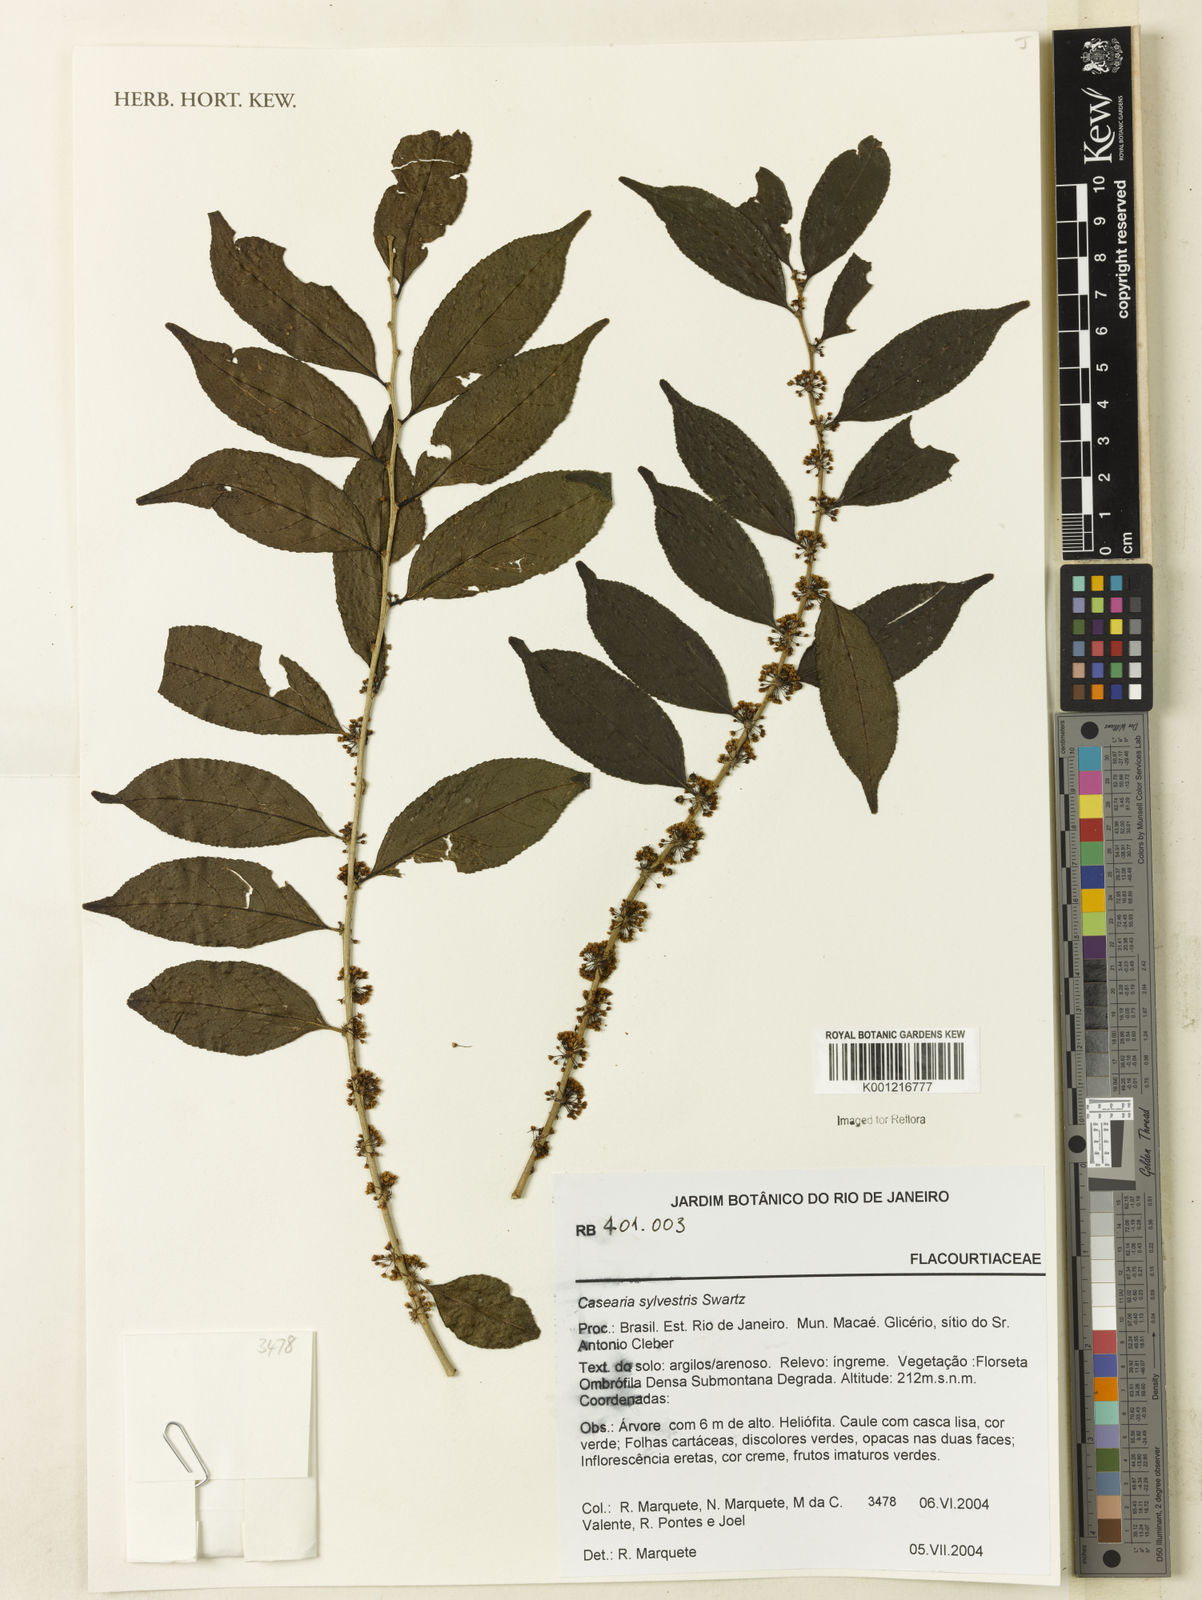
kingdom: Plantae
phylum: Tracheophyta
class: Magnoliopsida
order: Malpighiales
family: Salicaceae
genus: Casearia
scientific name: Casearia sylvestris
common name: Wild sage
